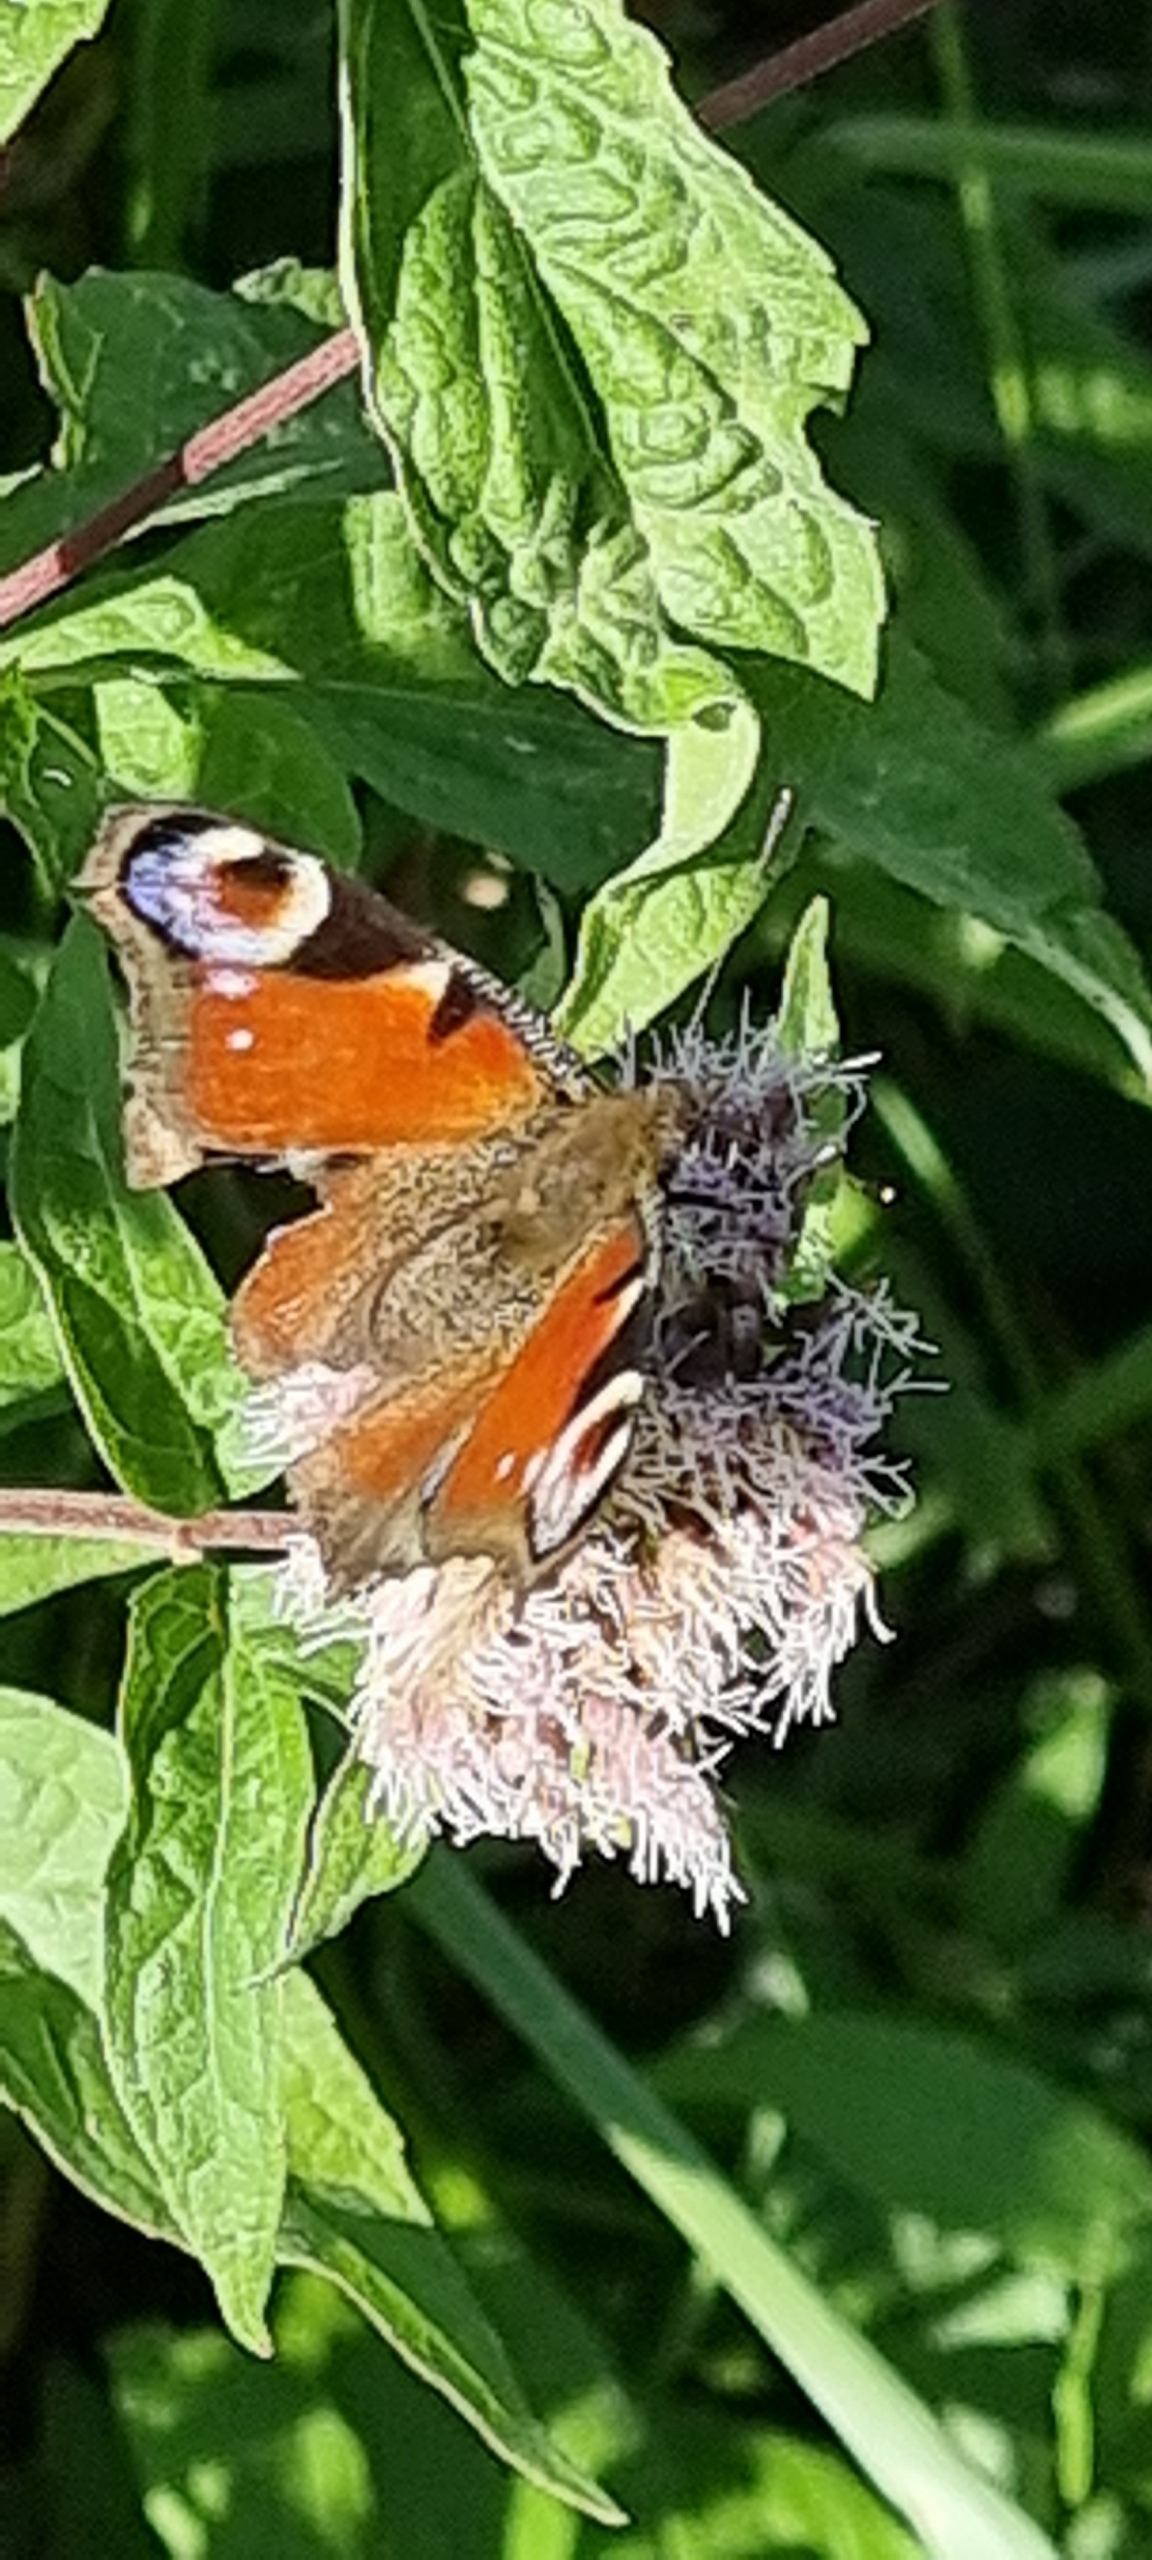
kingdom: Animalia
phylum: Arthropoda
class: Insecta
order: Lepidoptera
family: Nymphalidae
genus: Aglais
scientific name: Aglais io
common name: Dagpåfugleøje
